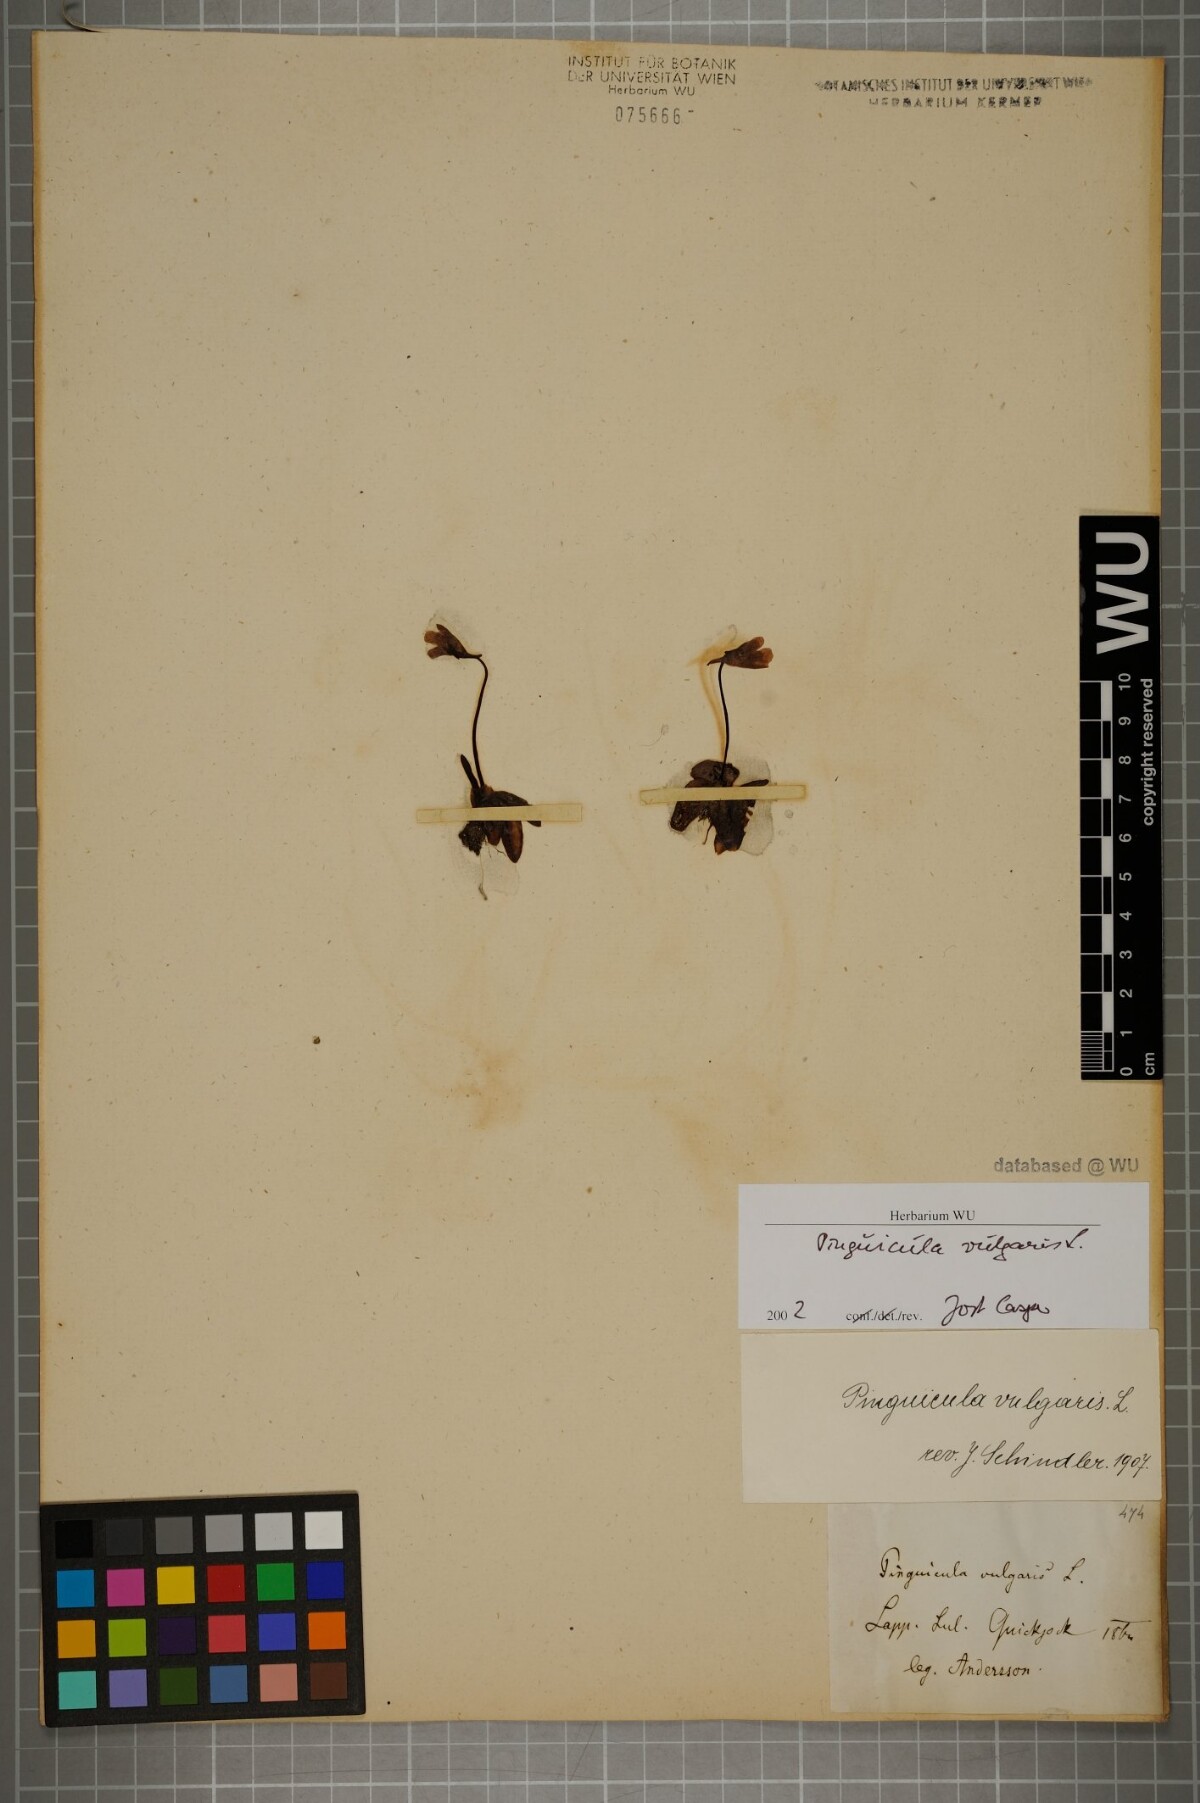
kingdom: Plantae
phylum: Tracheophyta
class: Magnoliopsida
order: Lamiales
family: Lentibulariaceae
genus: Pinguicula
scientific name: Pinguicula vulgaris
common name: Common butterwort
